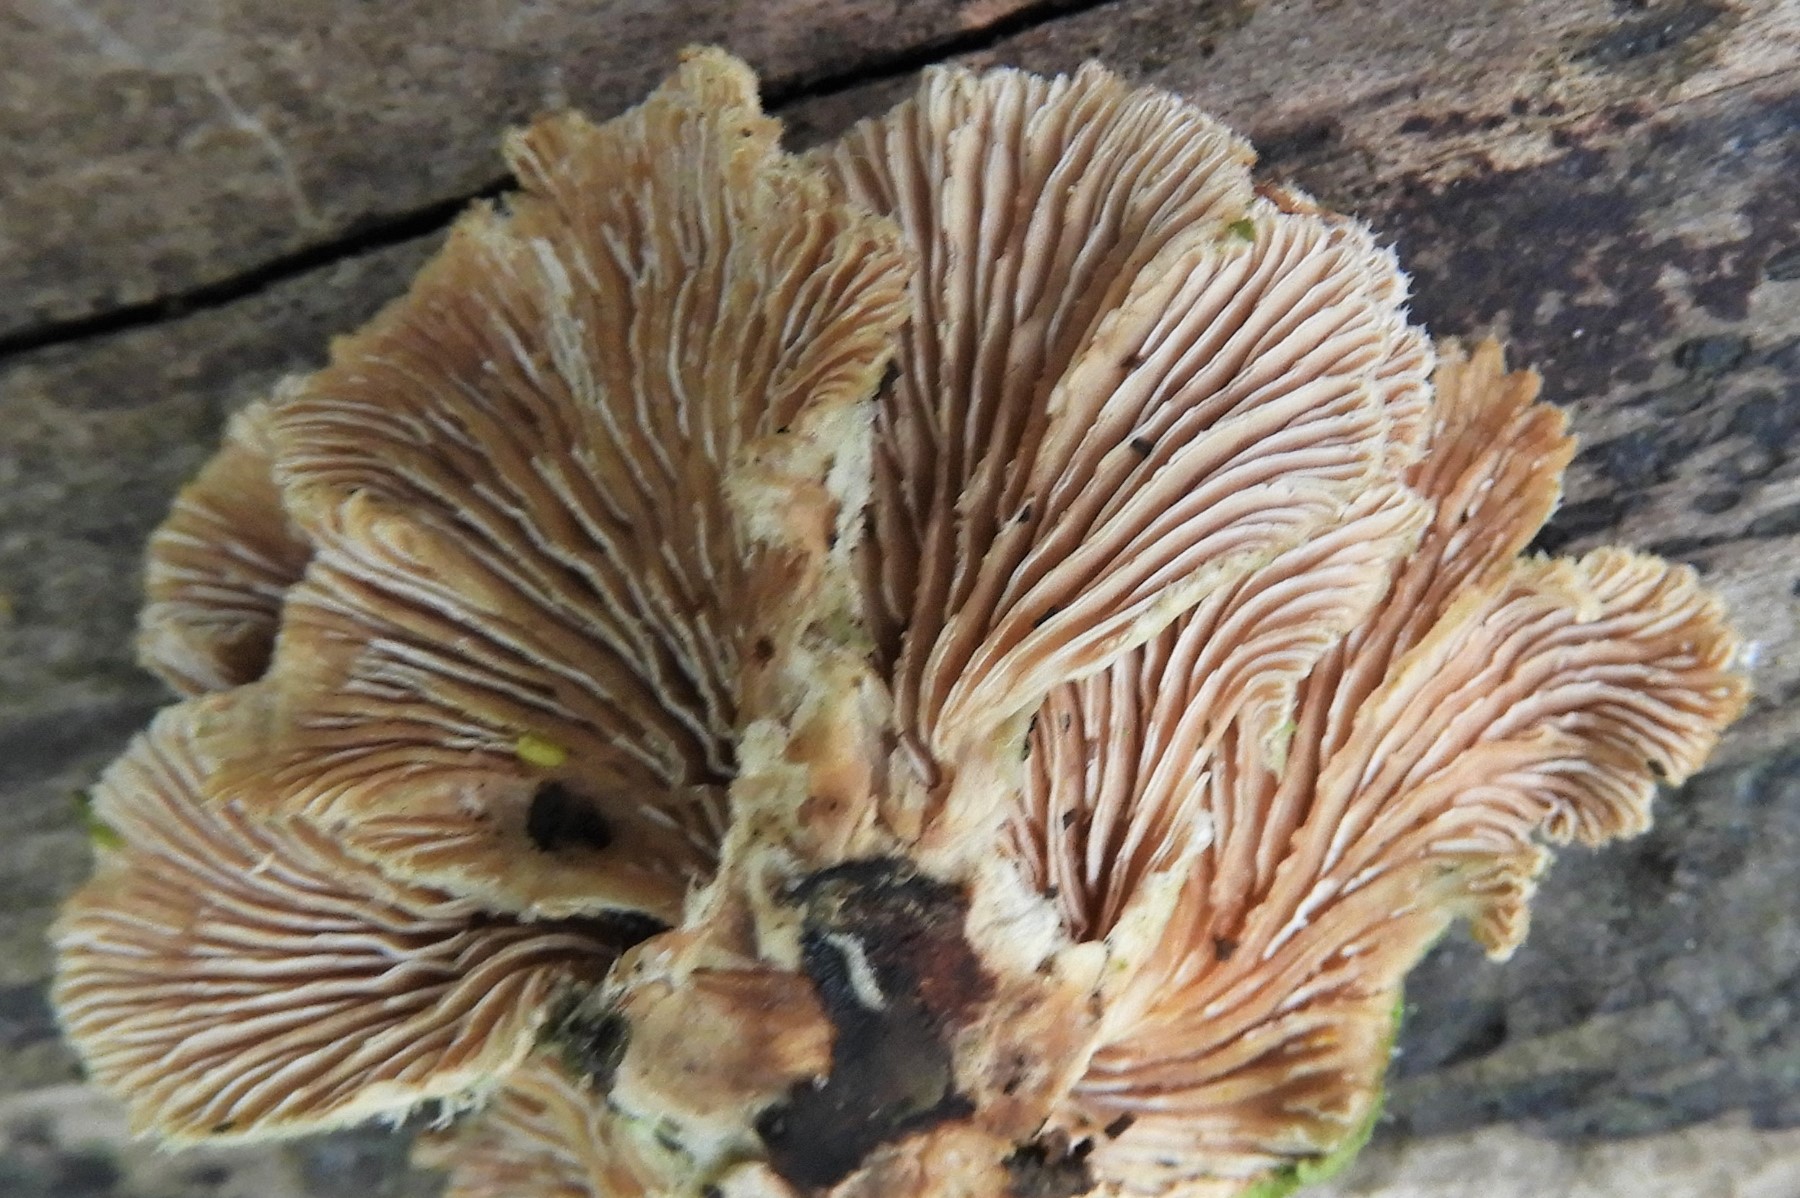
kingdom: Fungi
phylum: Basidiomycota
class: Agaricomycetes
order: Agaricales
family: Schizophyllaceae
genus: Schizophyllum
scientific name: Schizophyllum commune
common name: kløvblad
